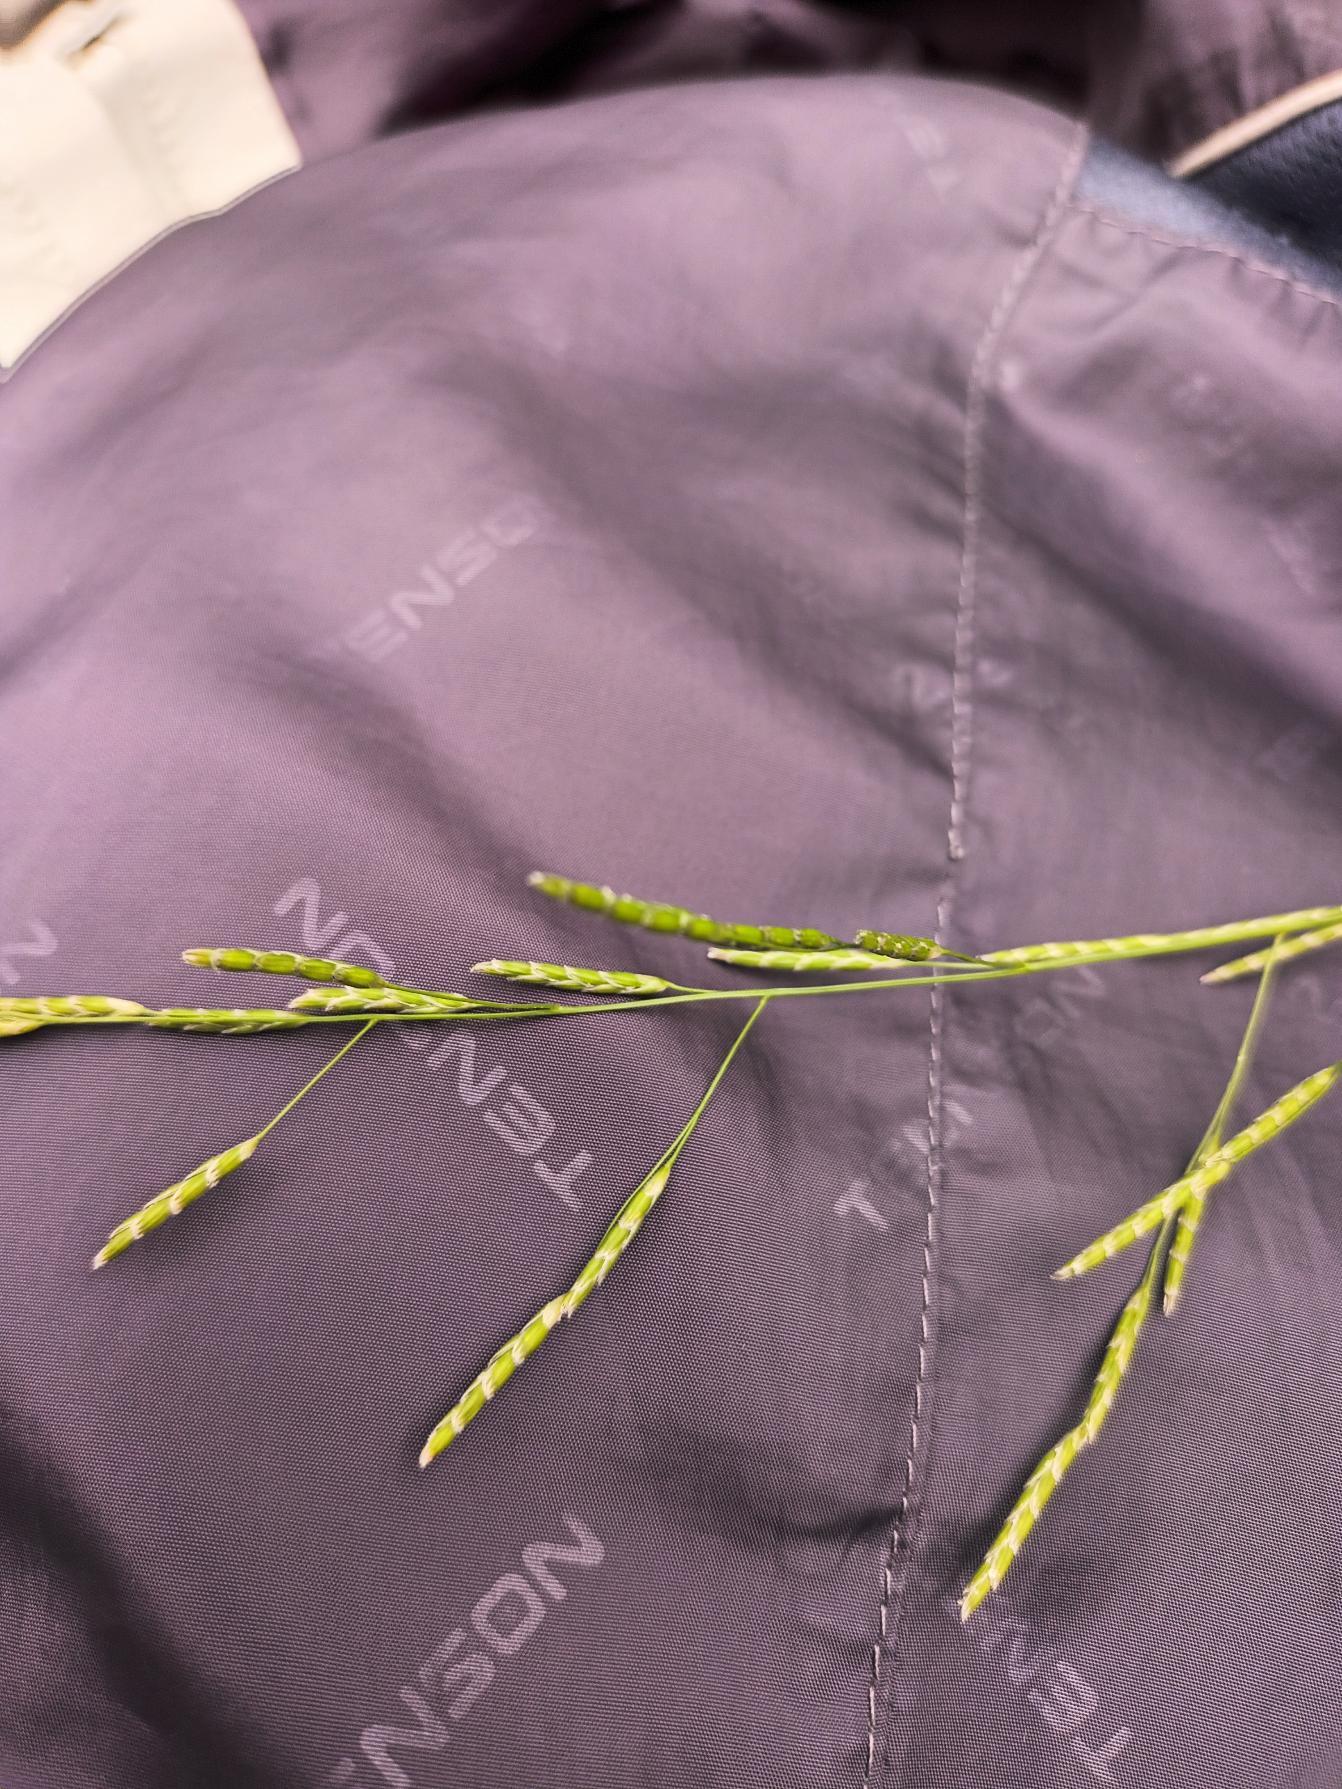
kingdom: Plantae
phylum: Tracheophyta
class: Liliopsida
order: Poales
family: Poaceae
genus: Glyceria
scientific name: Glyceria notata
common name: Butblomstret sødgræs
